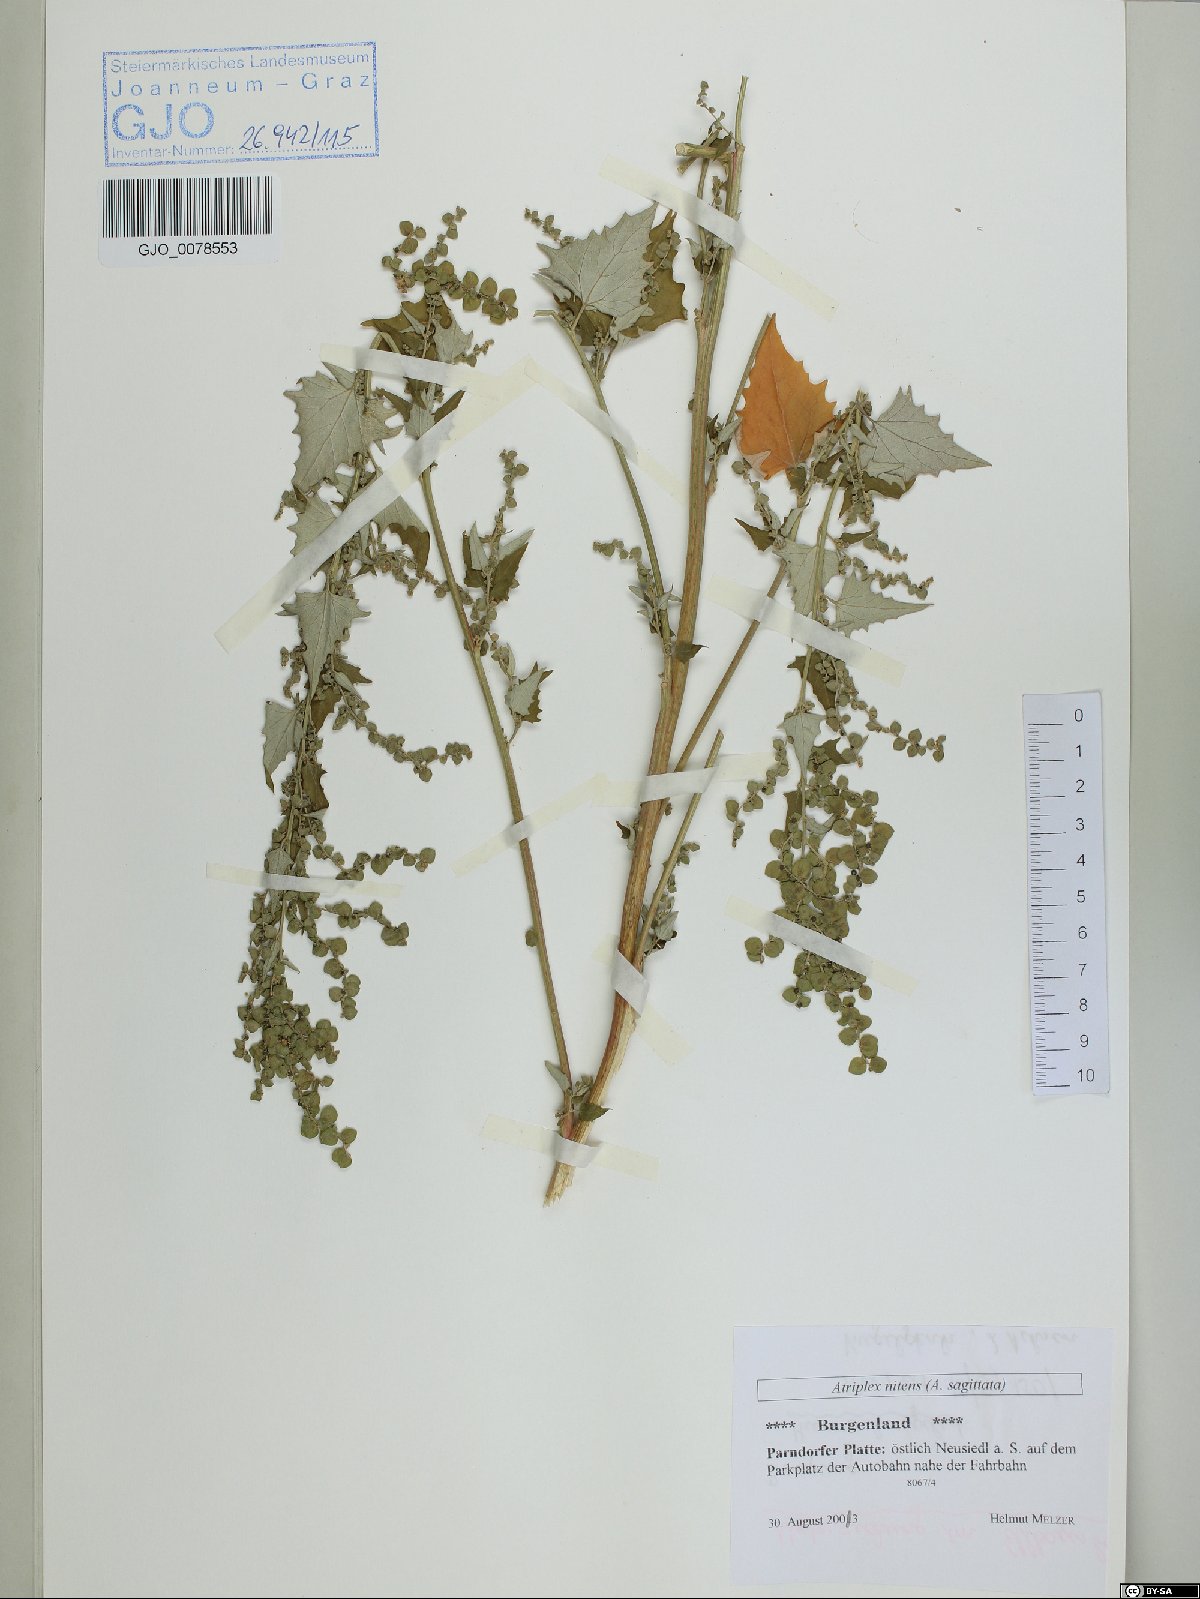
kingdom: Plantae
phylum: Tracheophyta
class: Magnoliopsida
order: Caryophyllales
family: Amaranthaceae
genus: Atriplex
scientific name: Atriplex sagittata
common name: Purple orache
